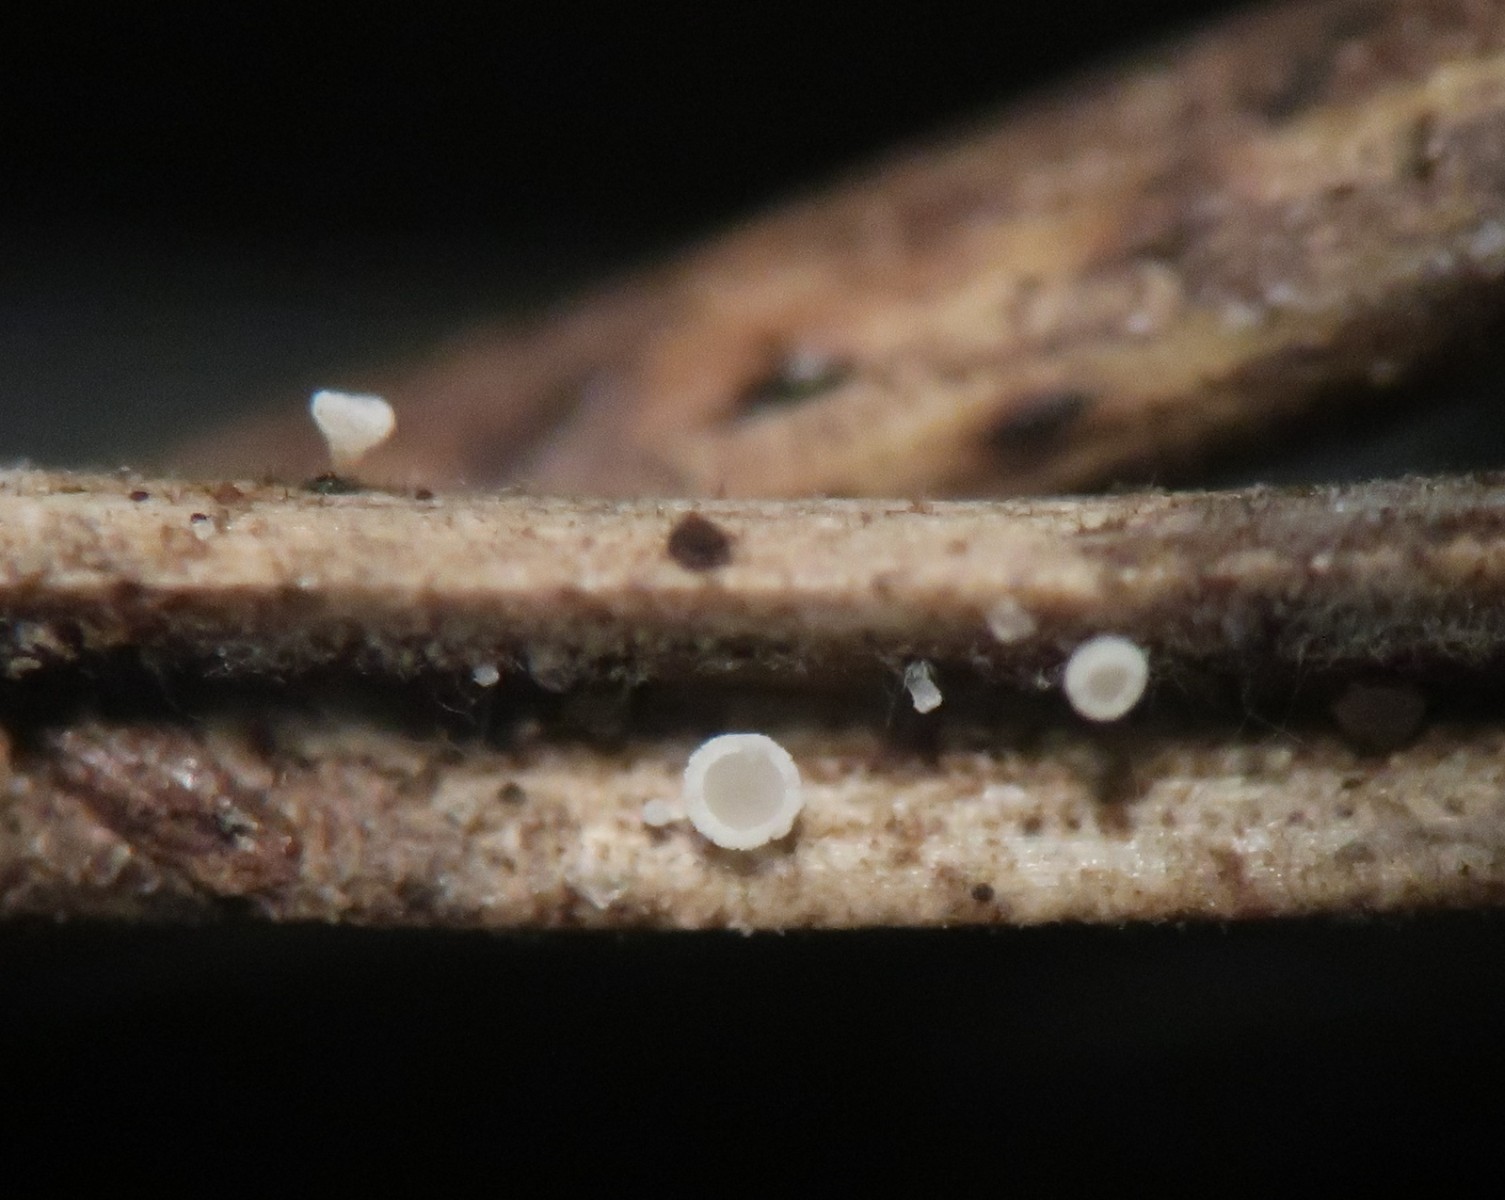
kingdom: Fungi
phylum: Ascomycota
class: Leotiomycetes
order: Helotiales
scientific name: Helotiales
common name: stilkskiveordenen
